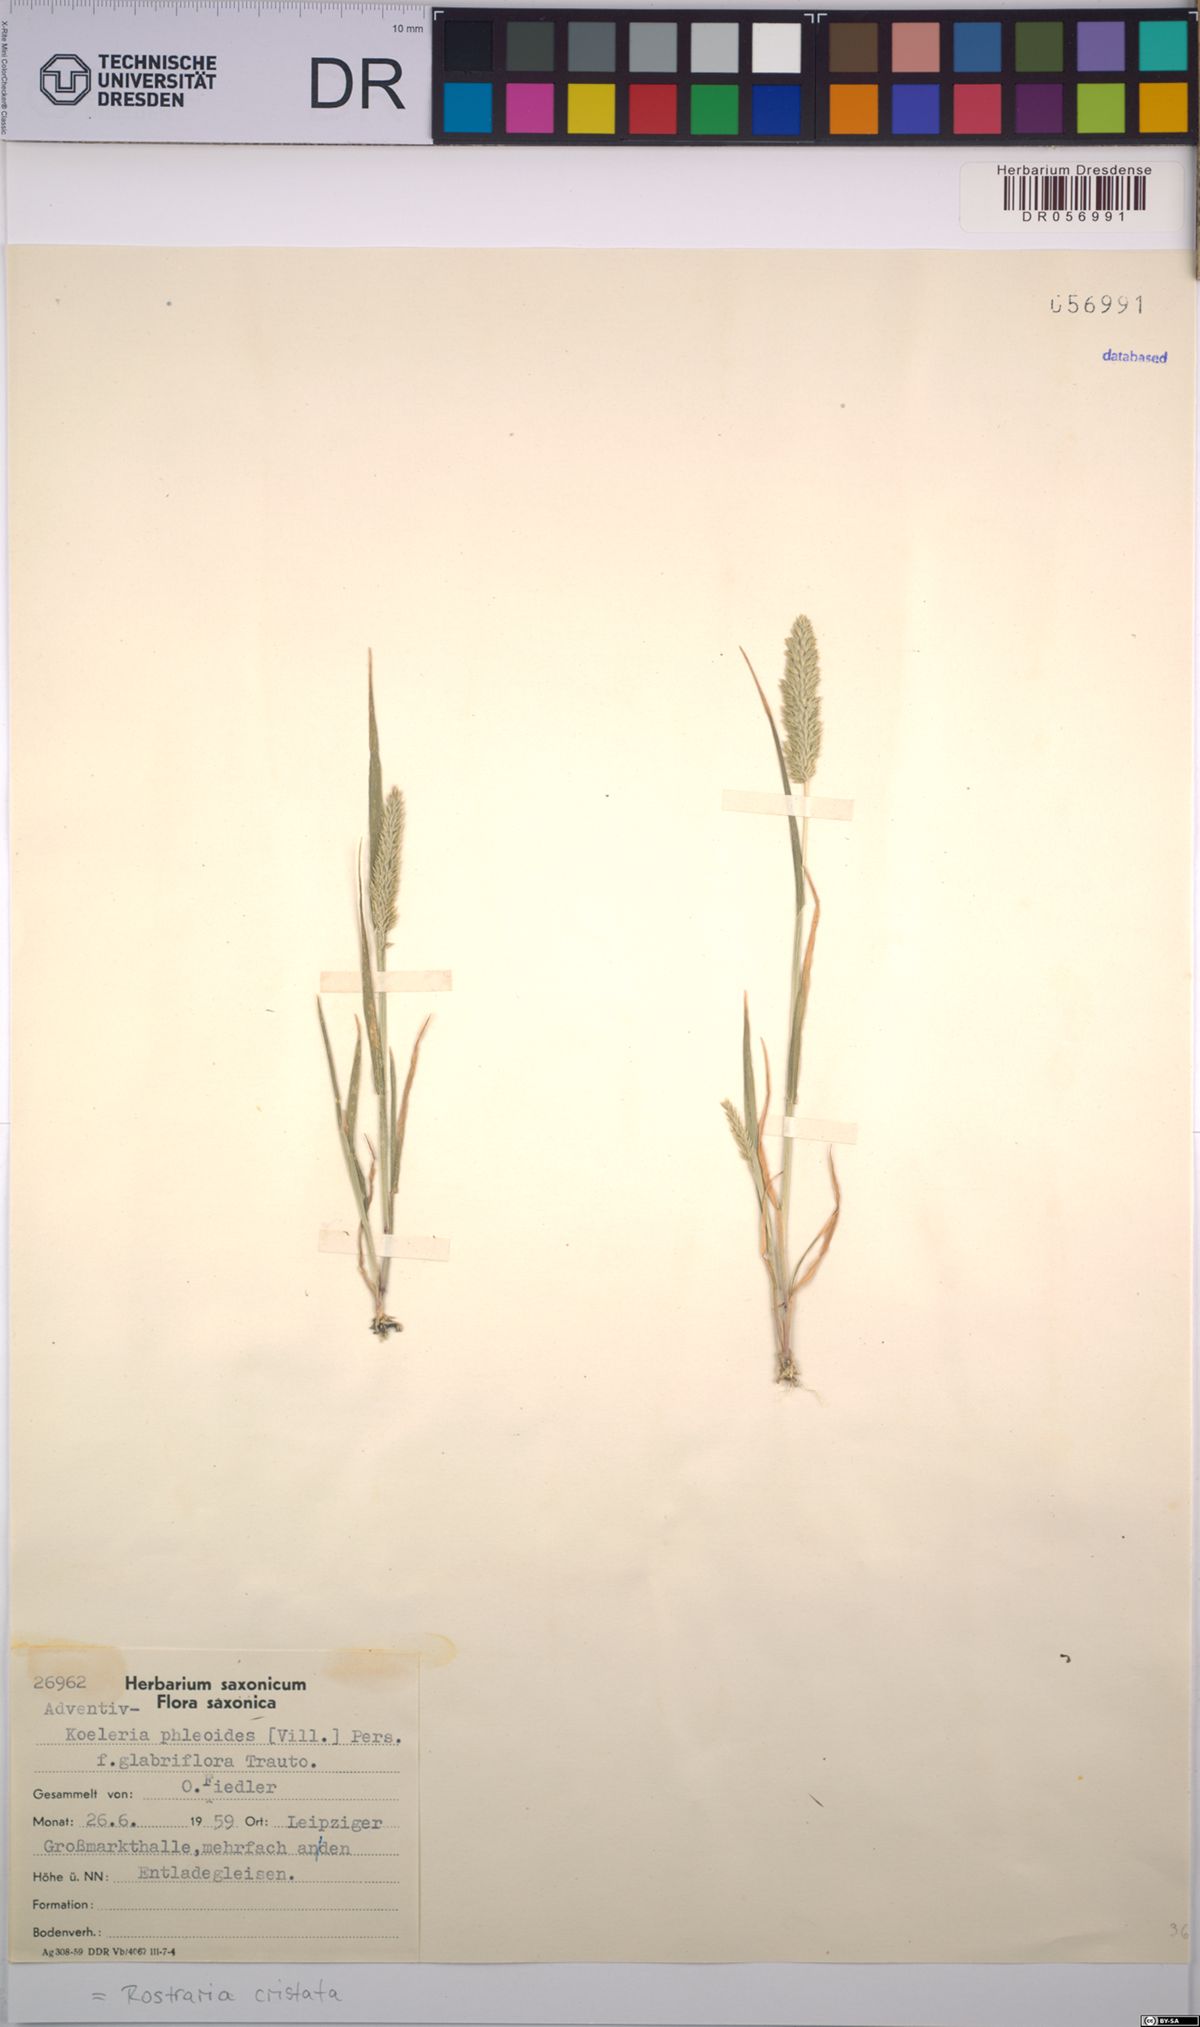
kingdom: Plantae
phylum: Tracheophyta
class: Liliopsida
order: Poales
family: Poaceae
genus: Rostraria
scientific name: Rostraria cristata
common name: Mediterranean hair-grass
